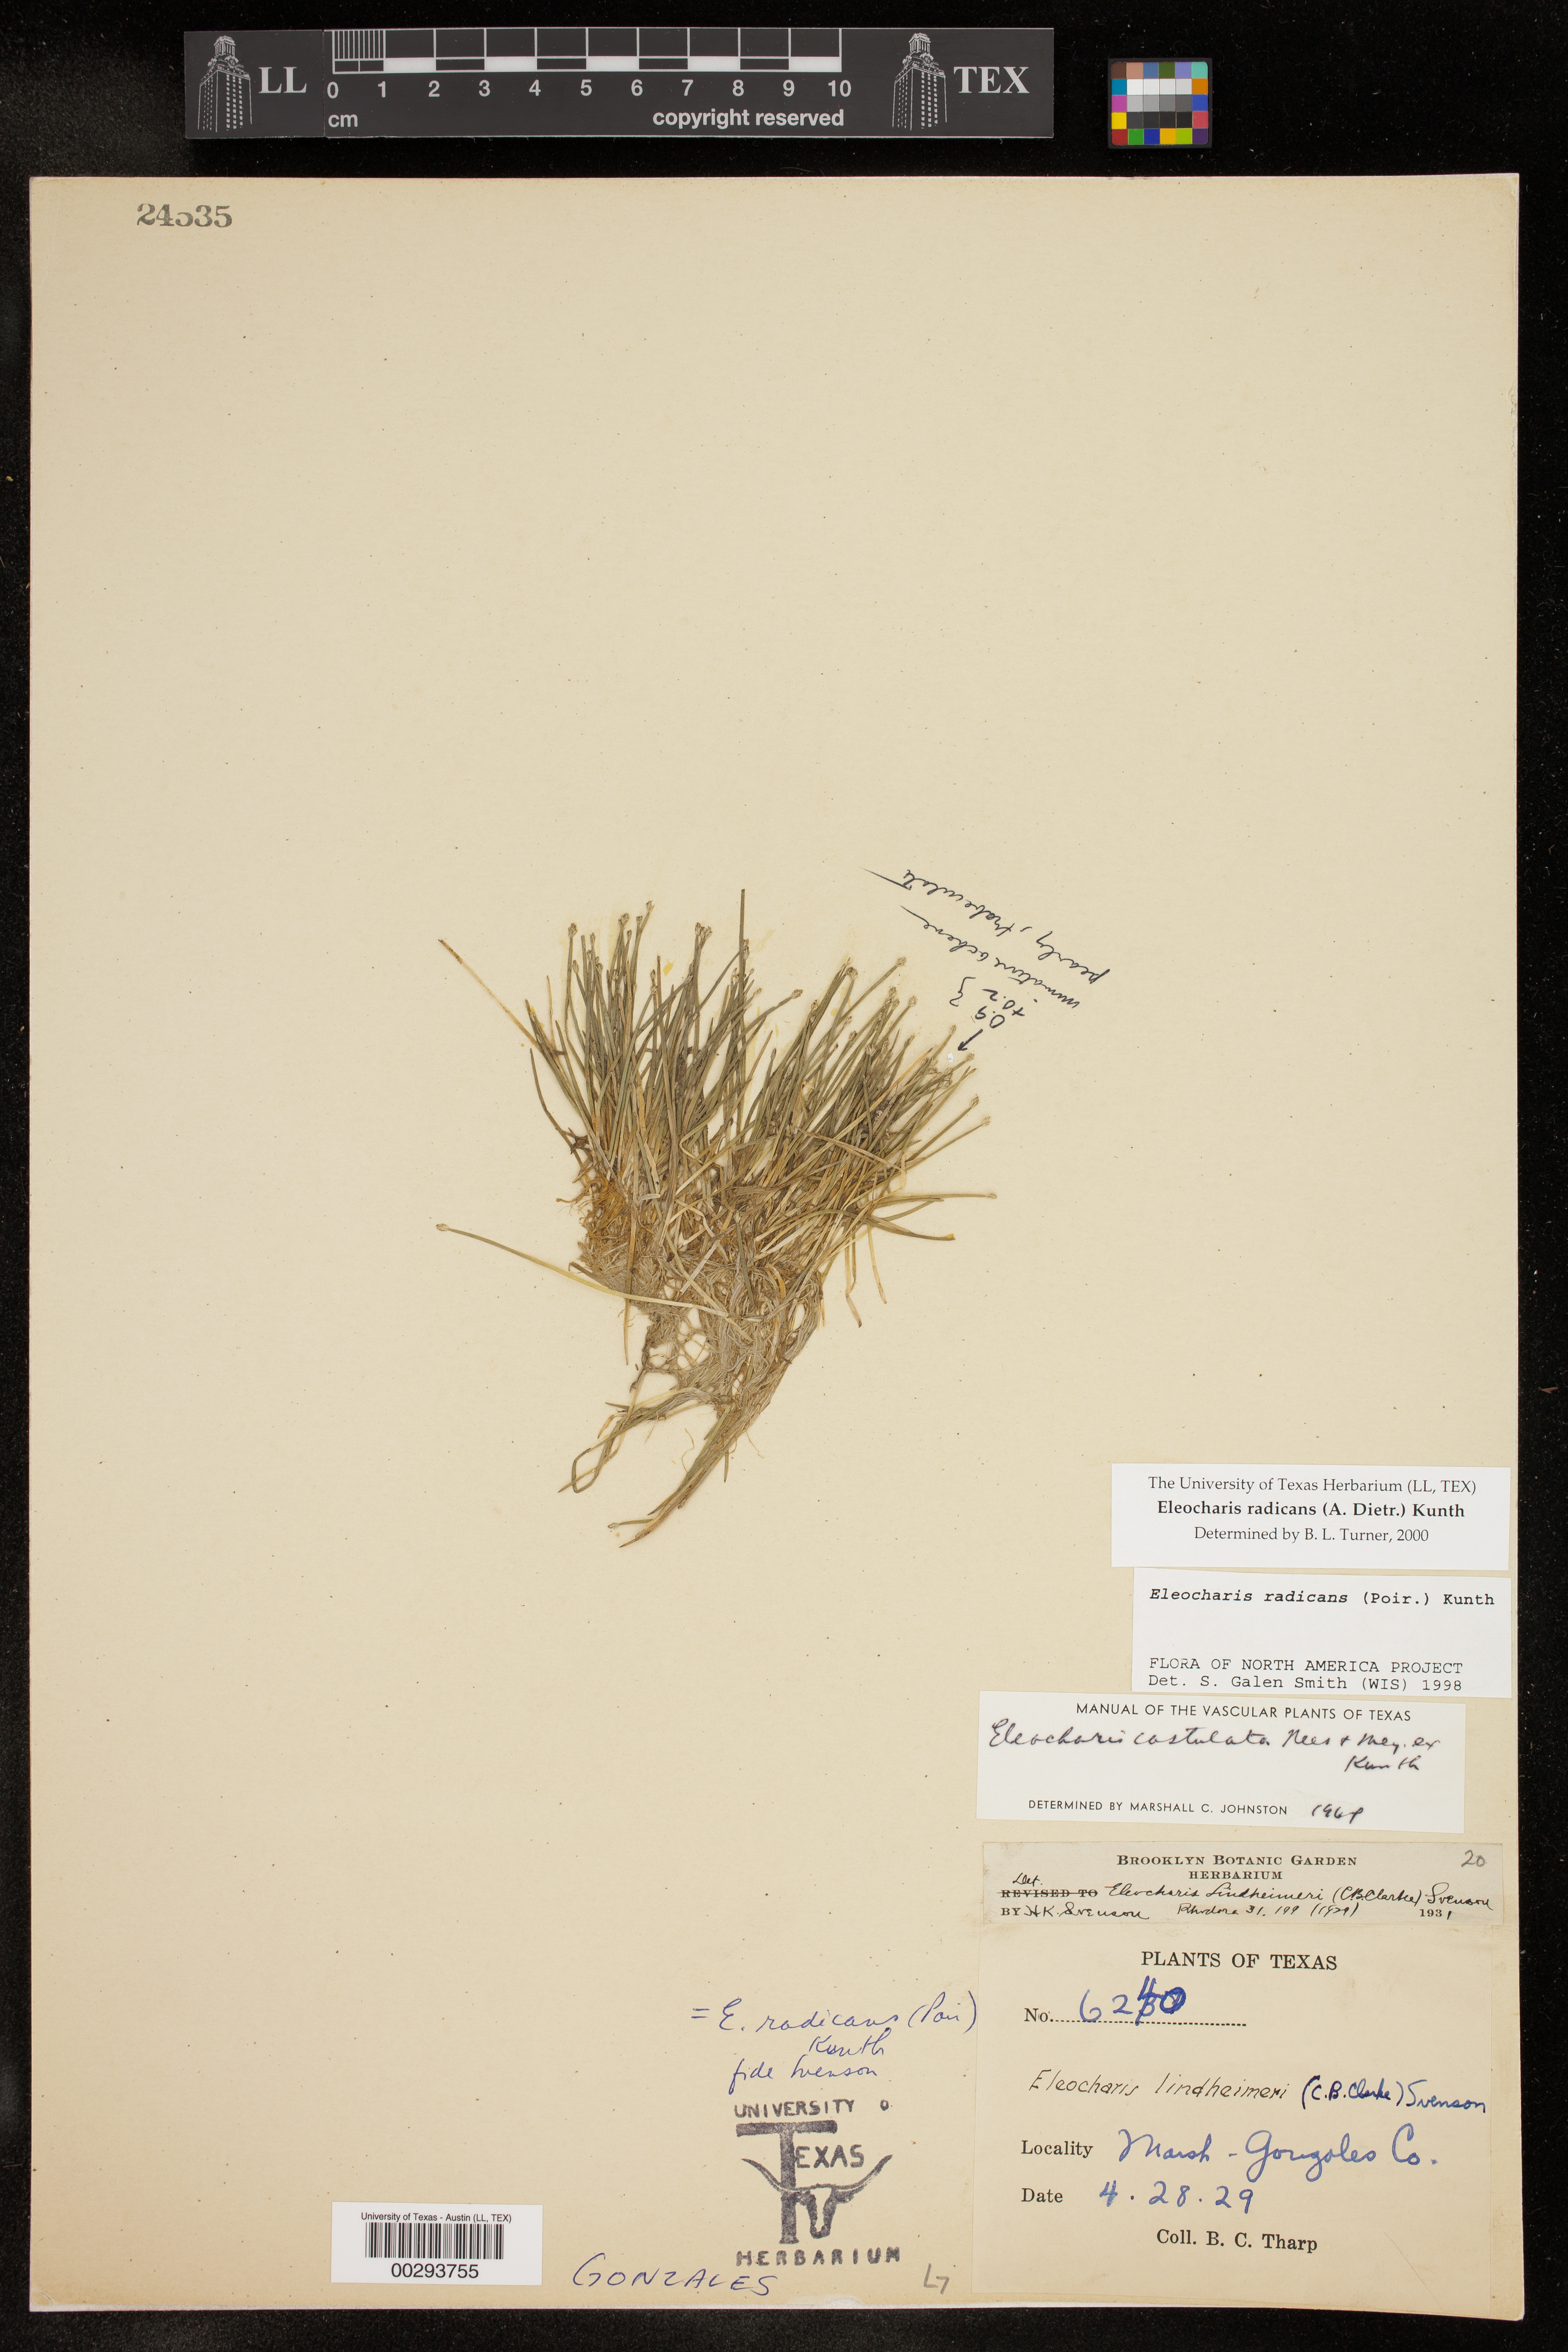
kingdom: Plantae
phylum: Tracheophyta
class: Liliopsida
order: Poales
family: Cyperaceae
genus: Eleocharis
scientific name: Eleocharis exigua
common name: Spikesedge
